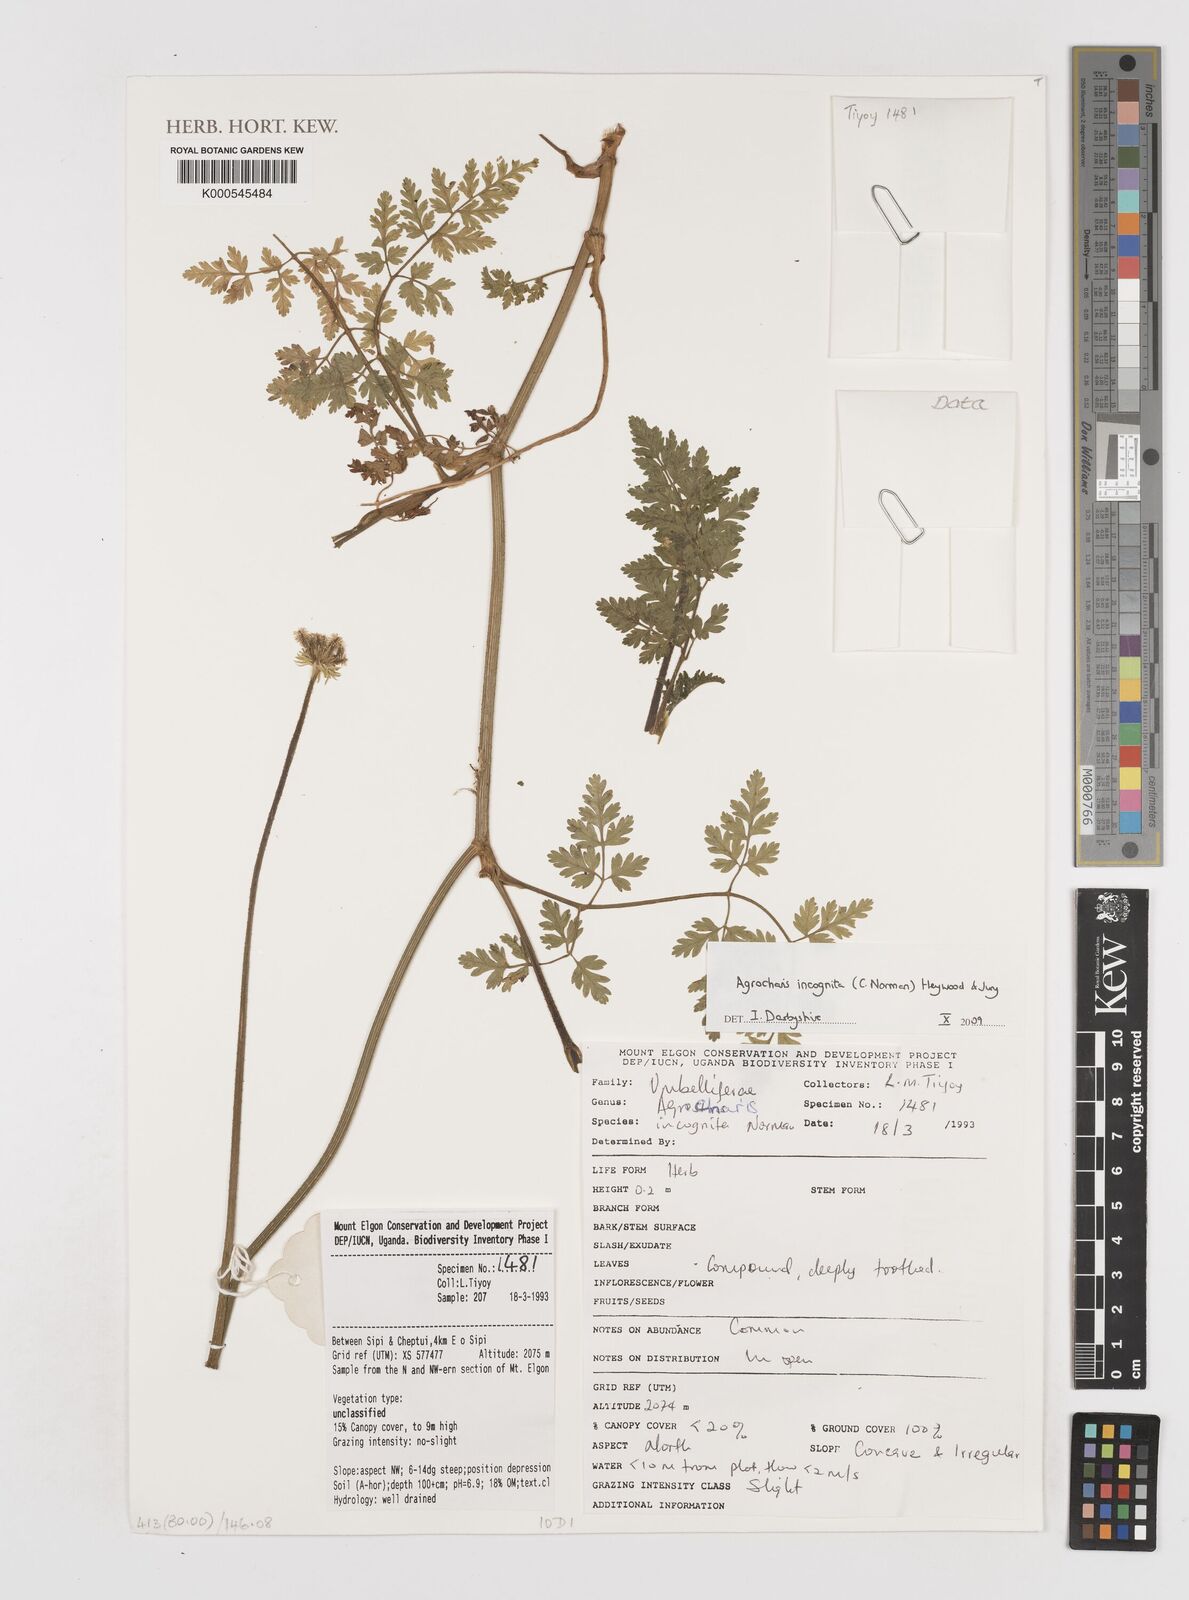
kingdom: Plantae
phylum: Tracheophyta
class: Magnoliopsida
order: Apiales
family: Apiaceae
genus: Daucus
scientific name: Daucus incognitus
